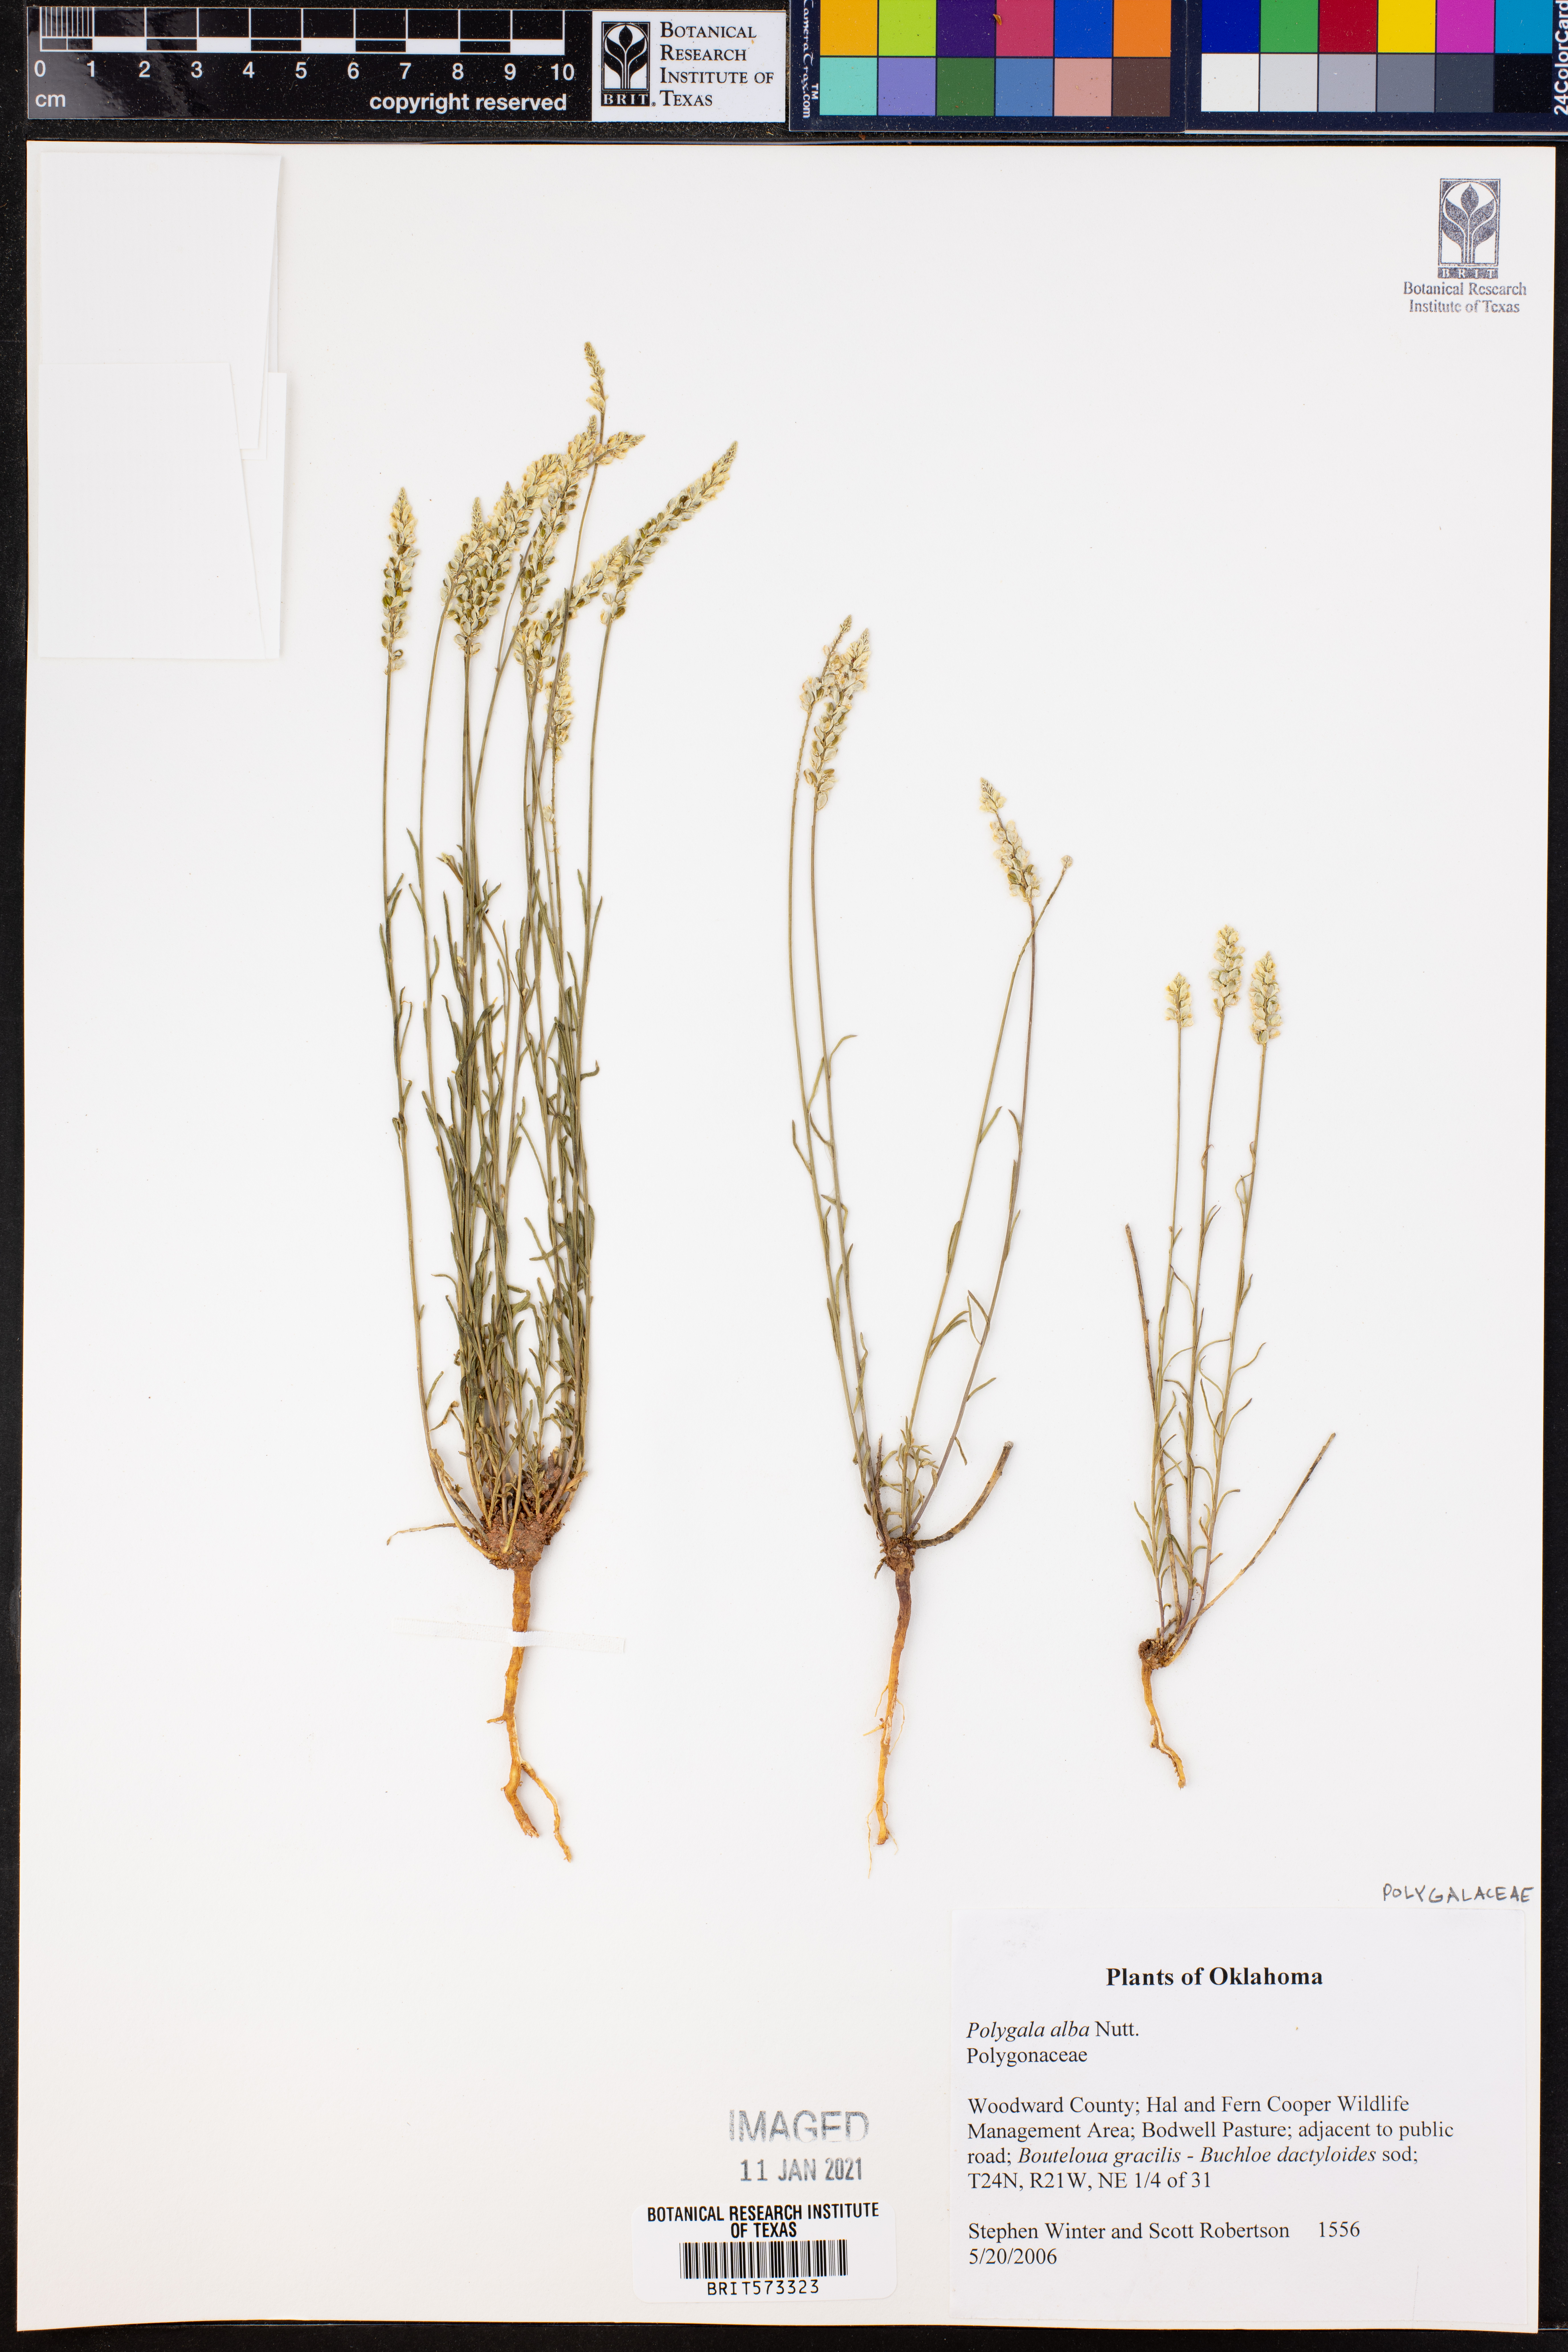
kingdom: Plantae
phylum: Tracheophyta
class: Magnoliopsida
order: Fabales
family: Polygalaceae
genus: Polygala
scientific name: Polygala alba
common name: White milkwort
